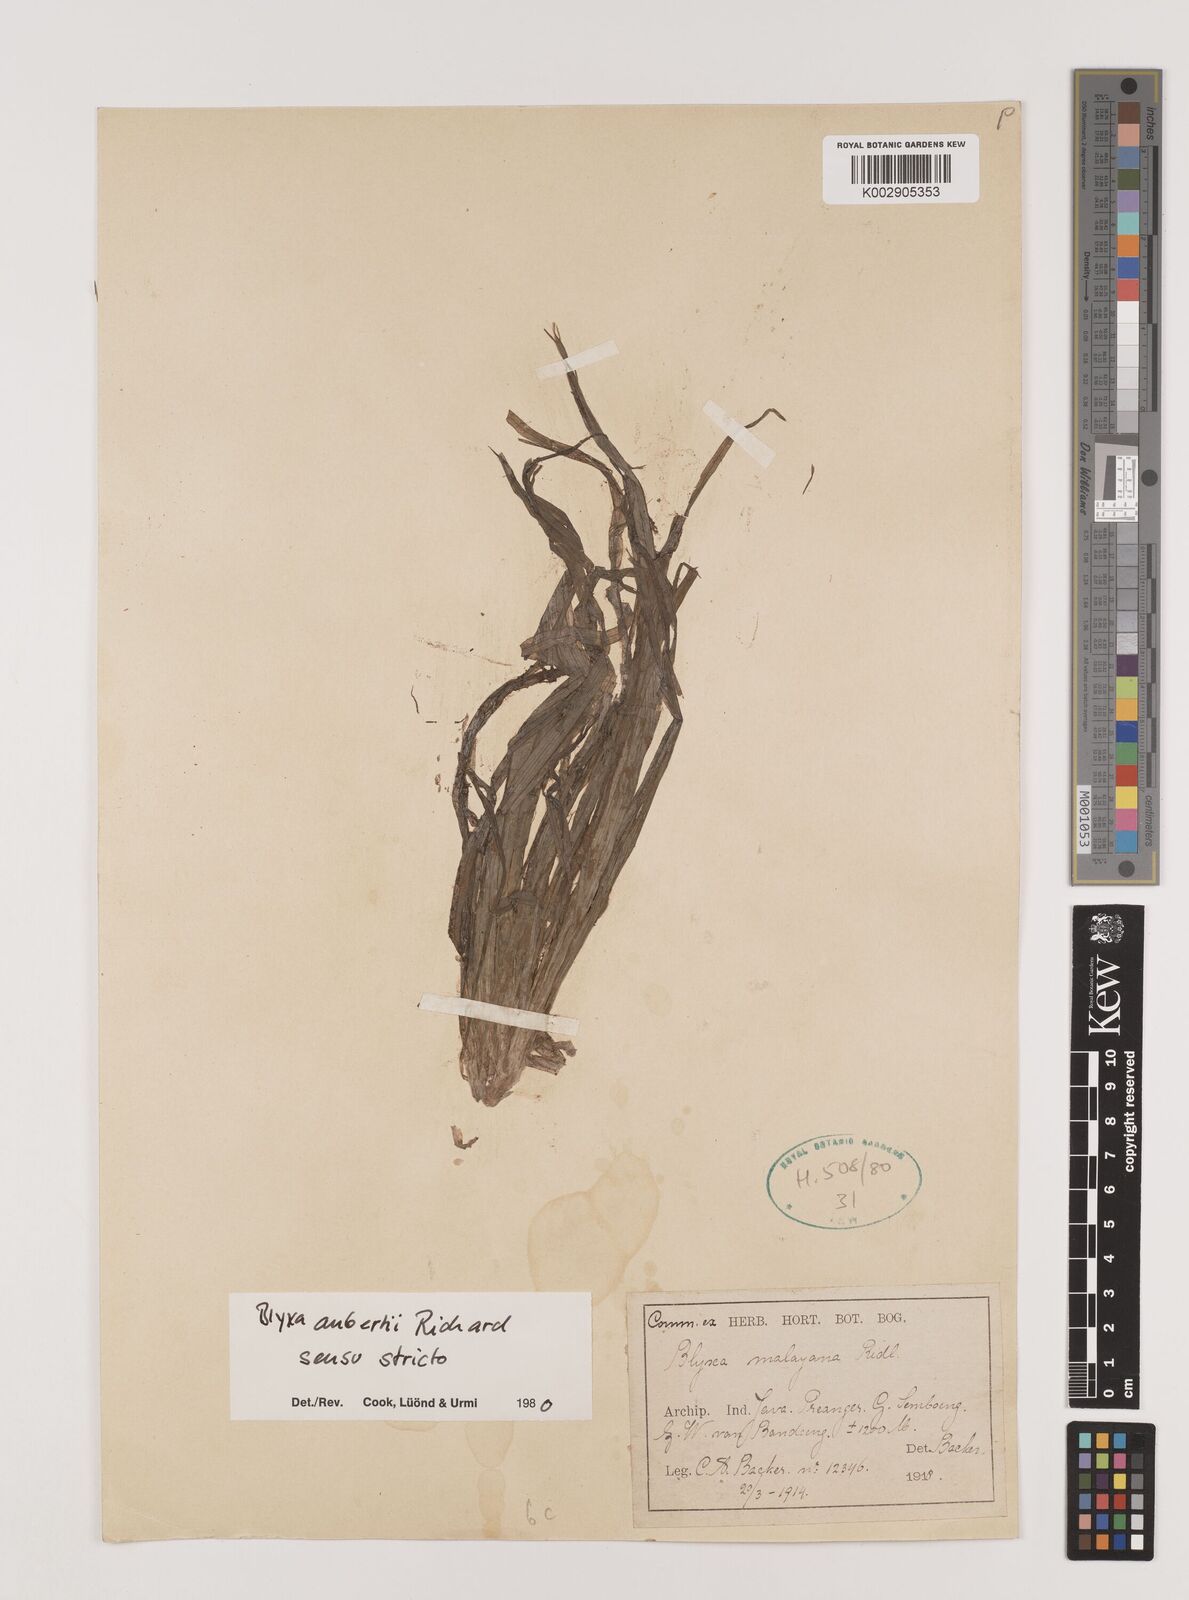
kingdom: Plantae
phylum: Tracheophyta
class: Liliopsida
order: Alismatales
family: Hydrocharitaceae
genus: Blyxa
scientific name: Blyxa aubertii
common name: Roundfruit blyxa
